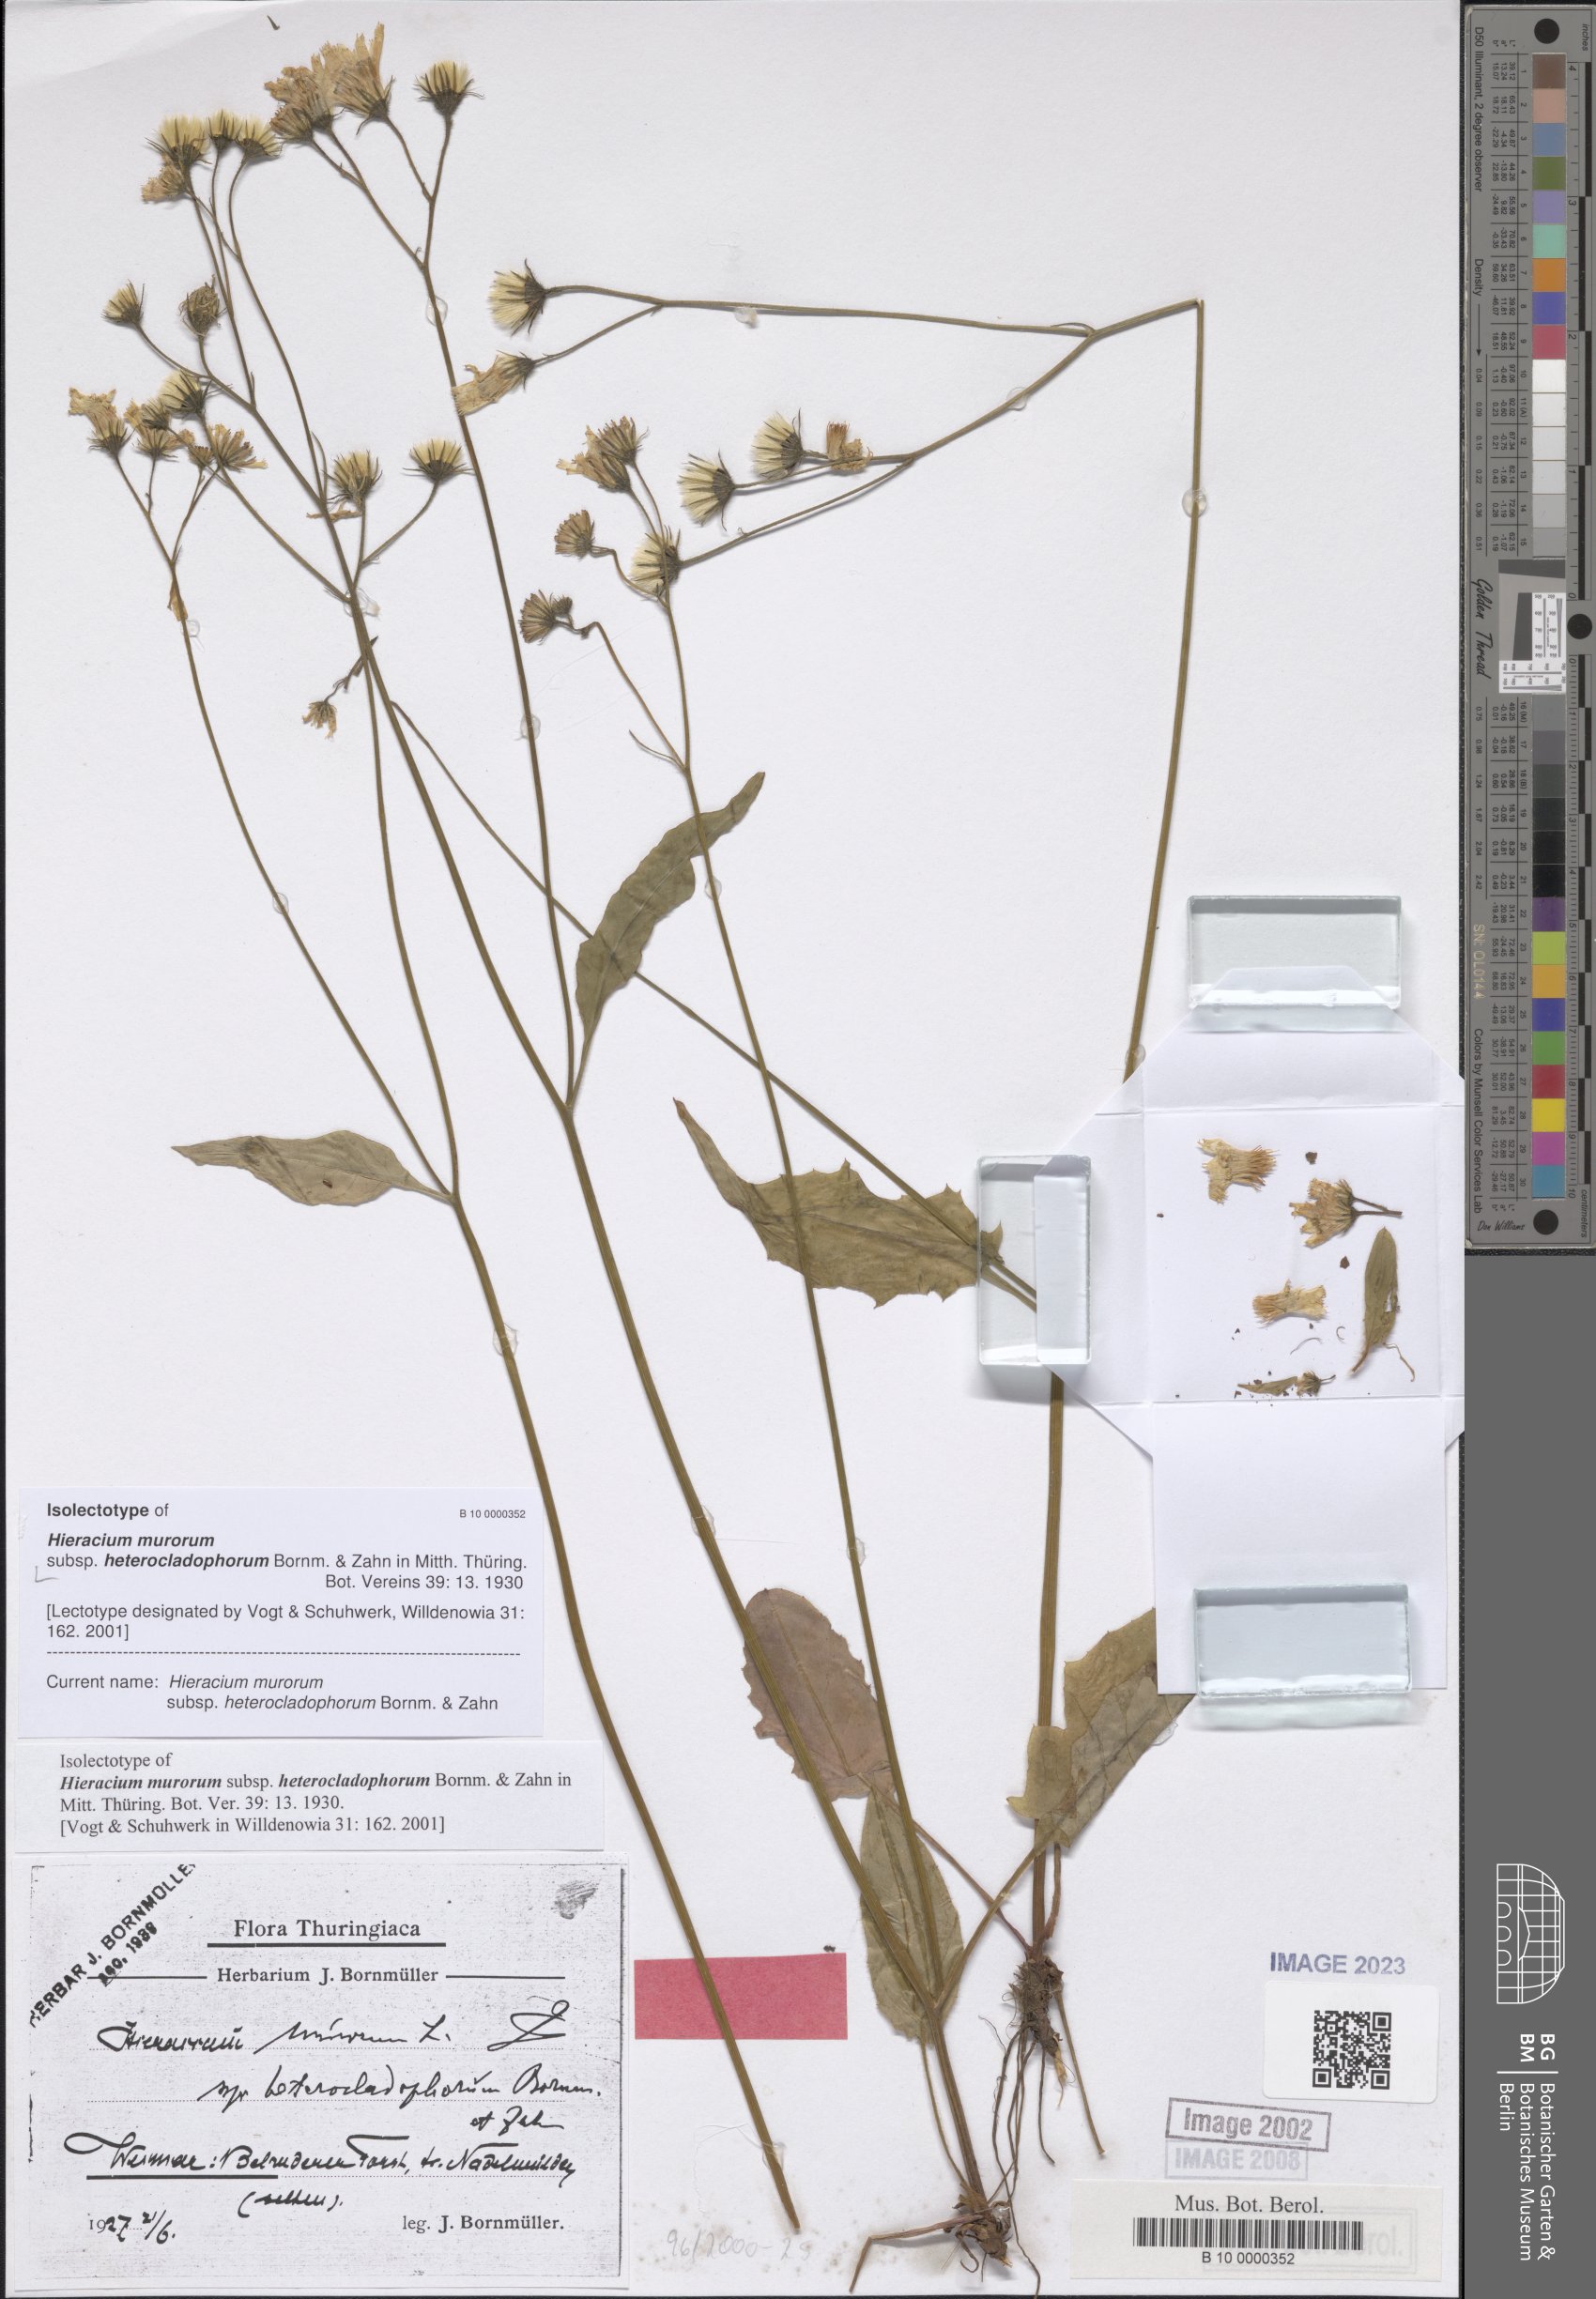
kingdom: Plantae
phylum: Tracheophyta
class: Magnoliopsida
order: Asterales
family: Asteraceae
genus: Hieracium
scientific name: Hieracium murorum
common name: Wall hawkweed
